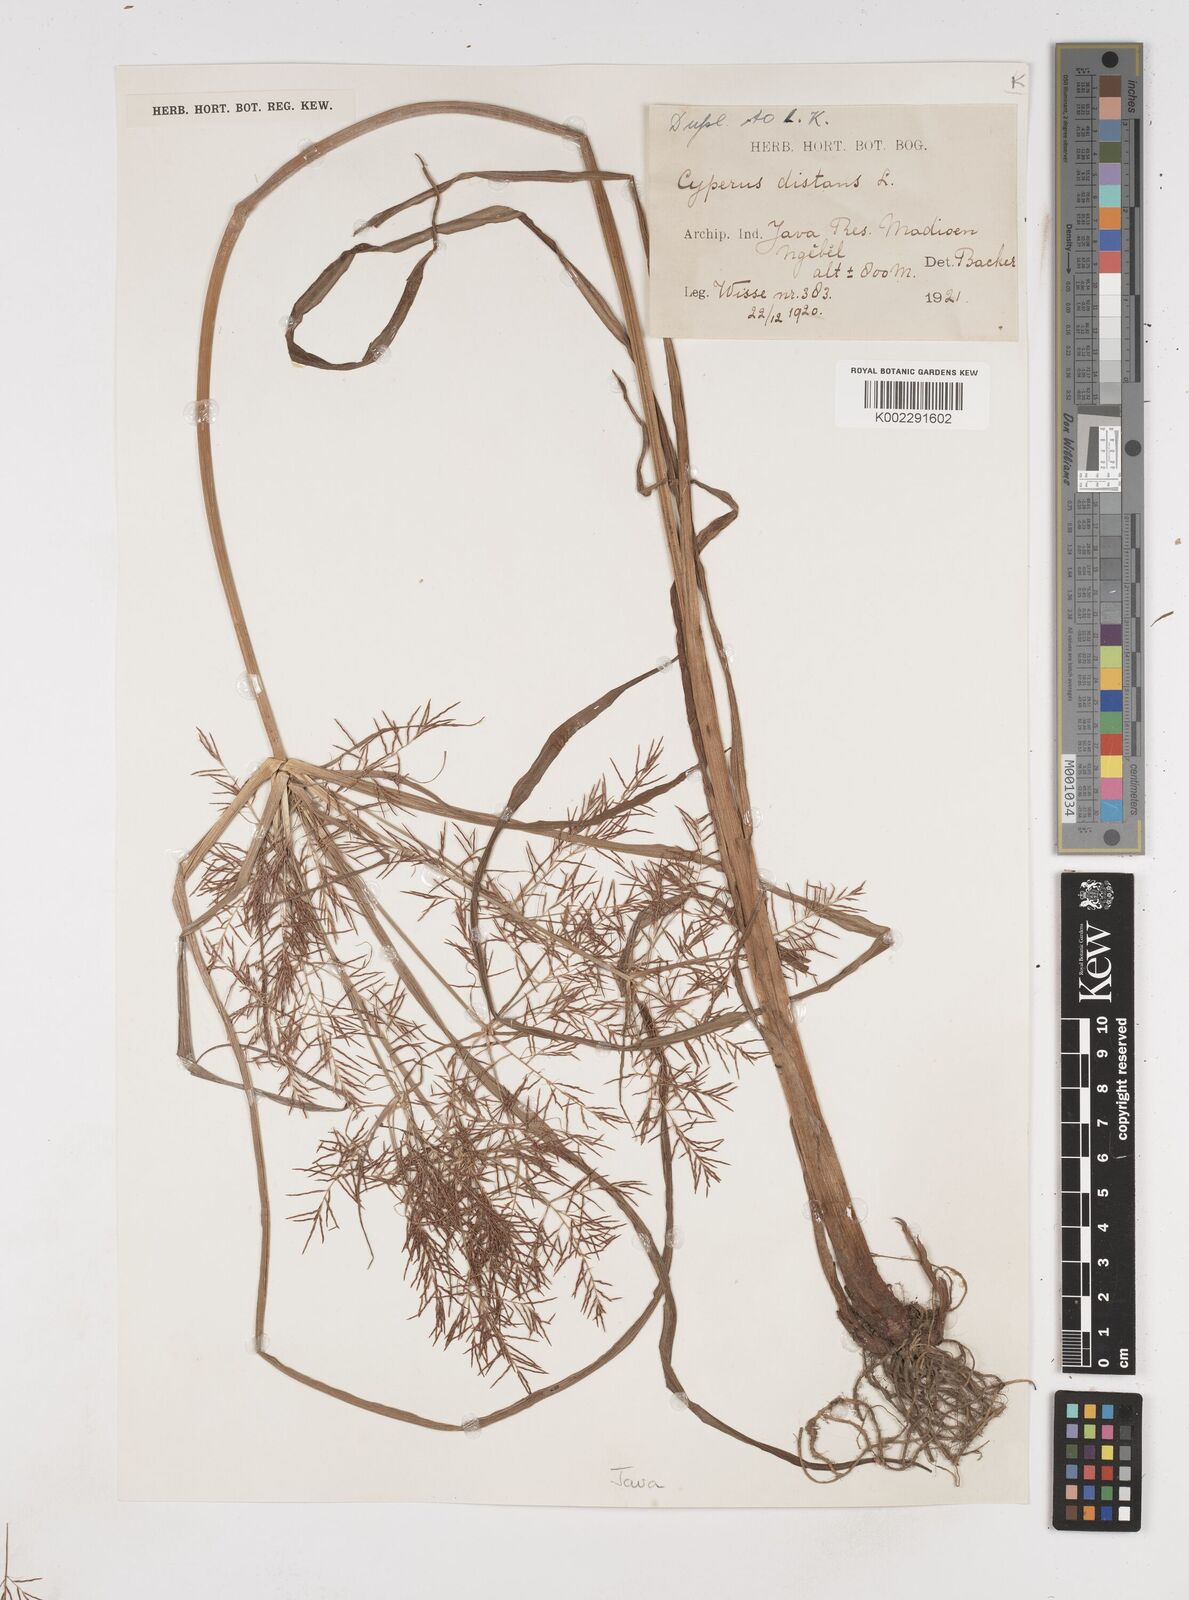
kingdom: Plantae
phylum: Tracheophyta
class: Liliopsida
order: Poales
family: Cyperaceae
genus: Cyperus
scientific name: Cyperus distans
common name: Slender cyperus
